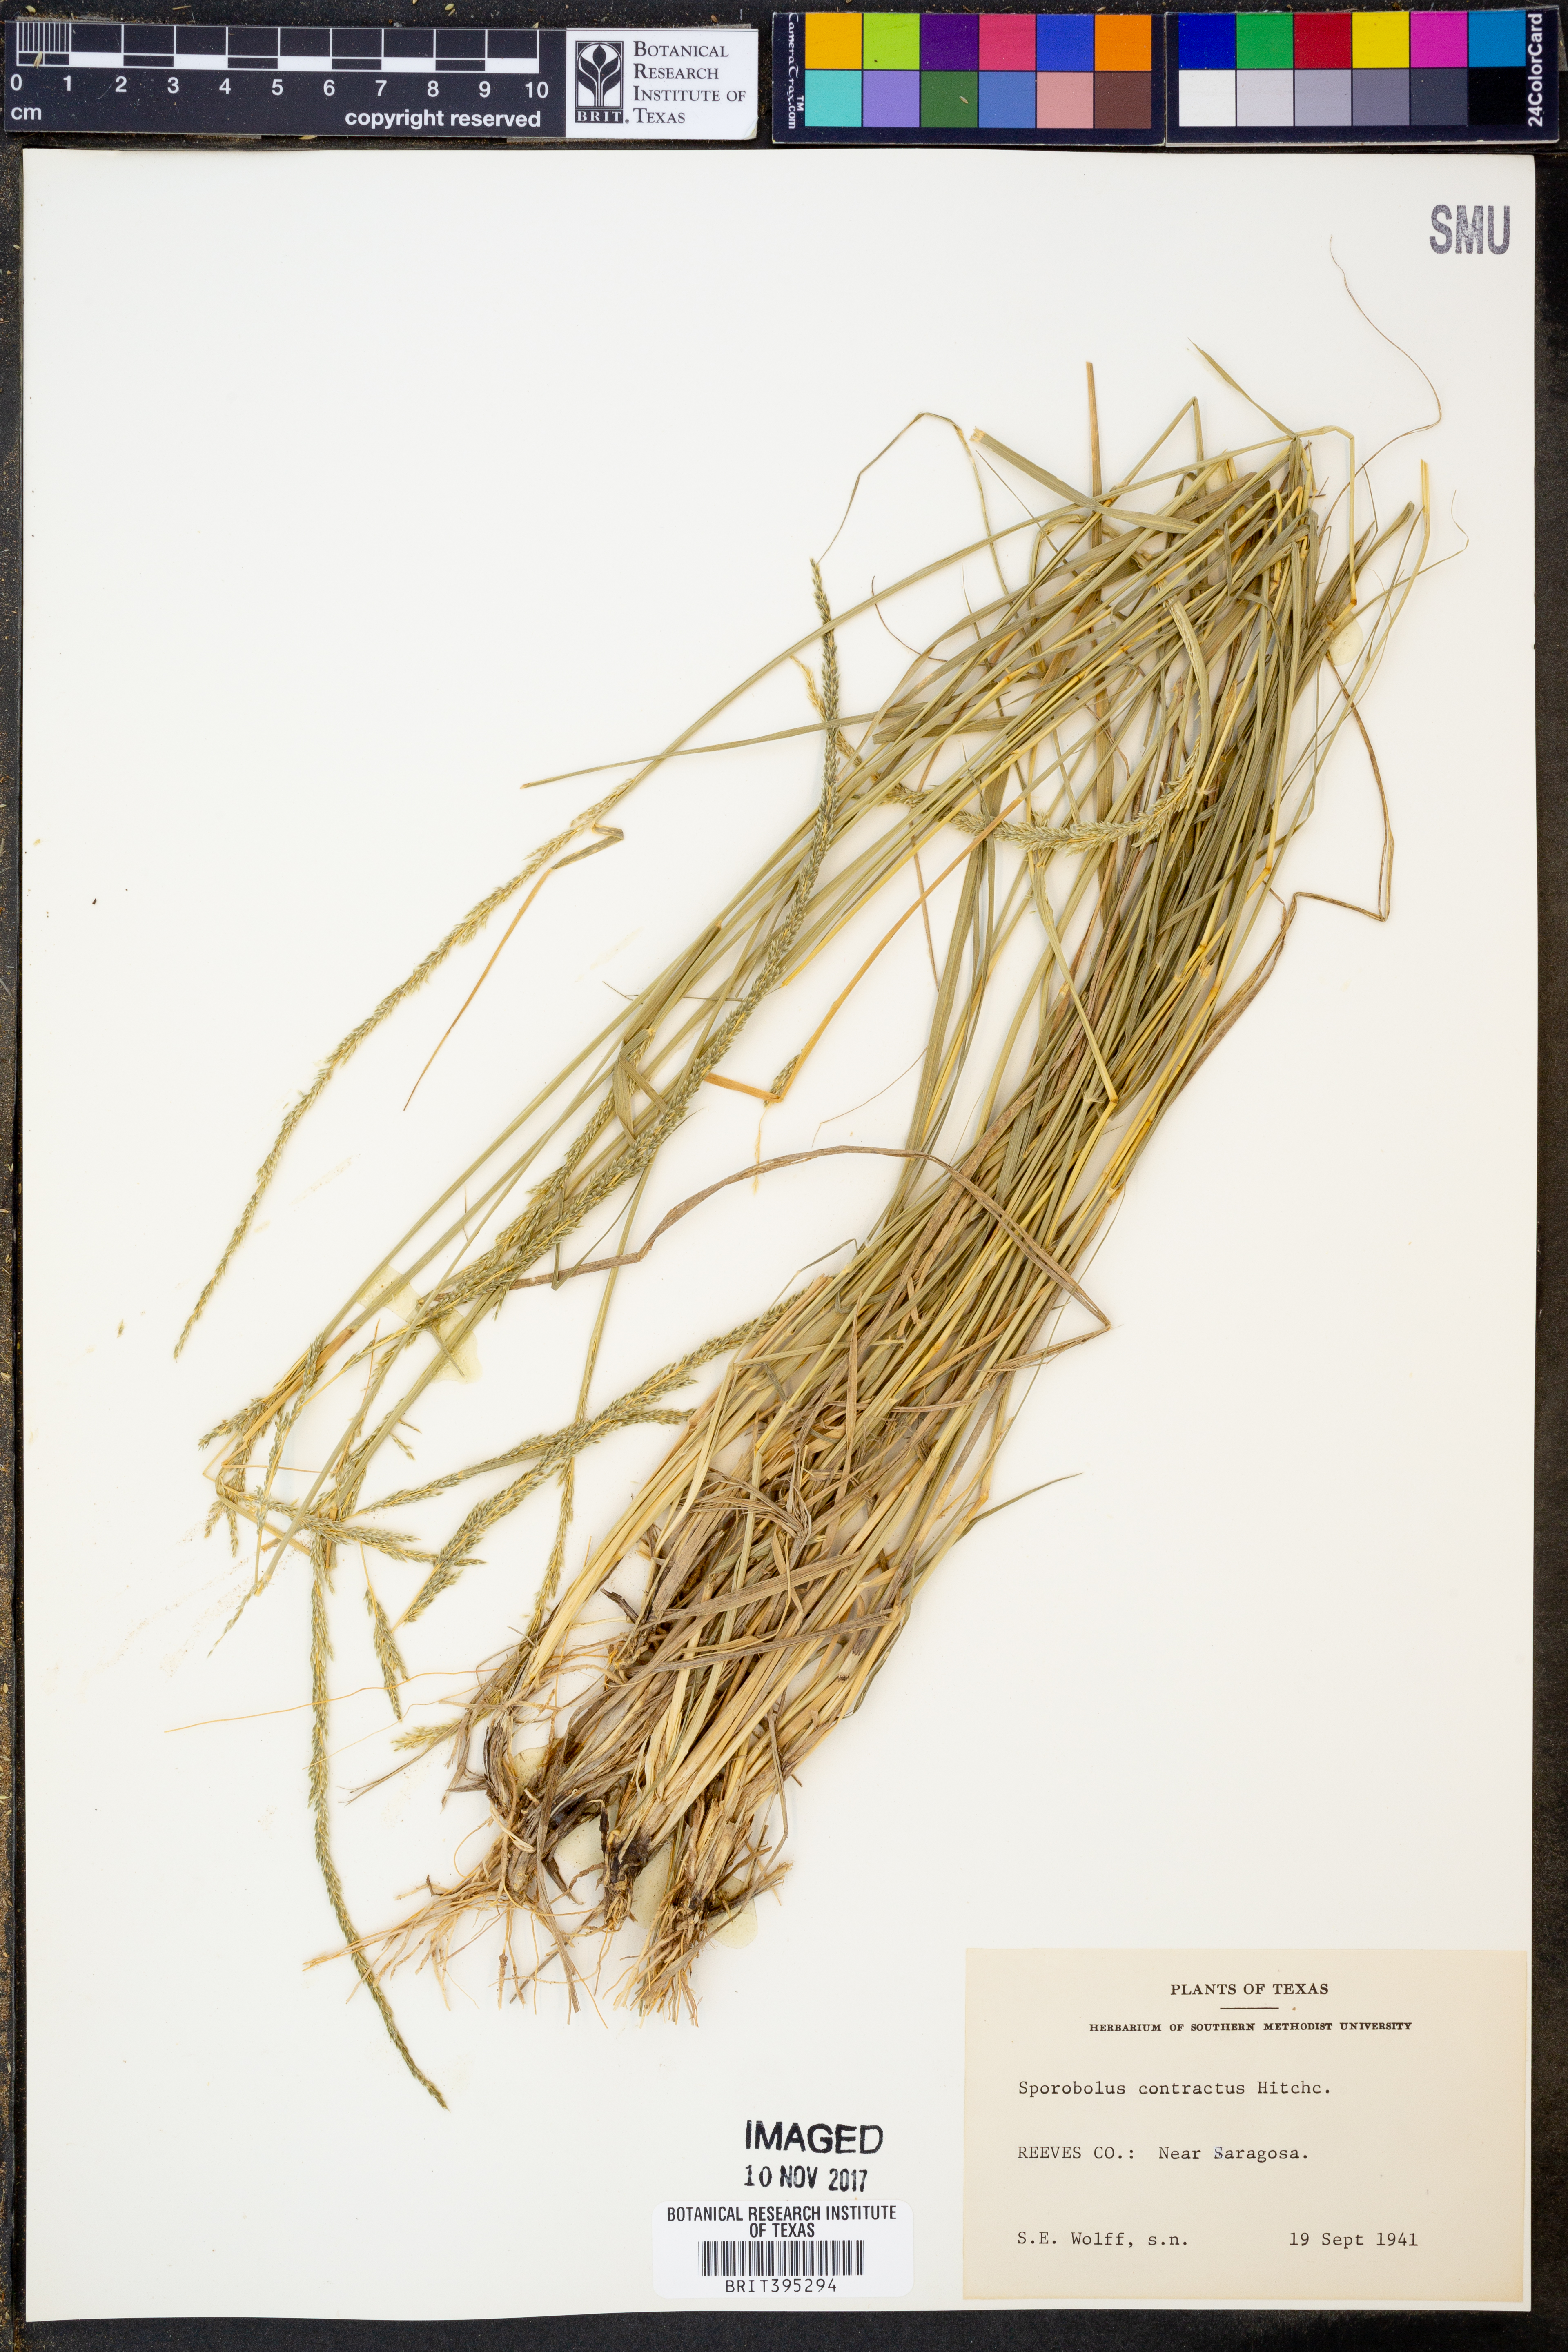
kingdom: Plantae
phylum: Tracheophyta
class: Liliopsida
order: Poales
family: Poaceae
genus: Sporobolus
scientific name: Sporobolus contractus
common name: Spike dropseed
